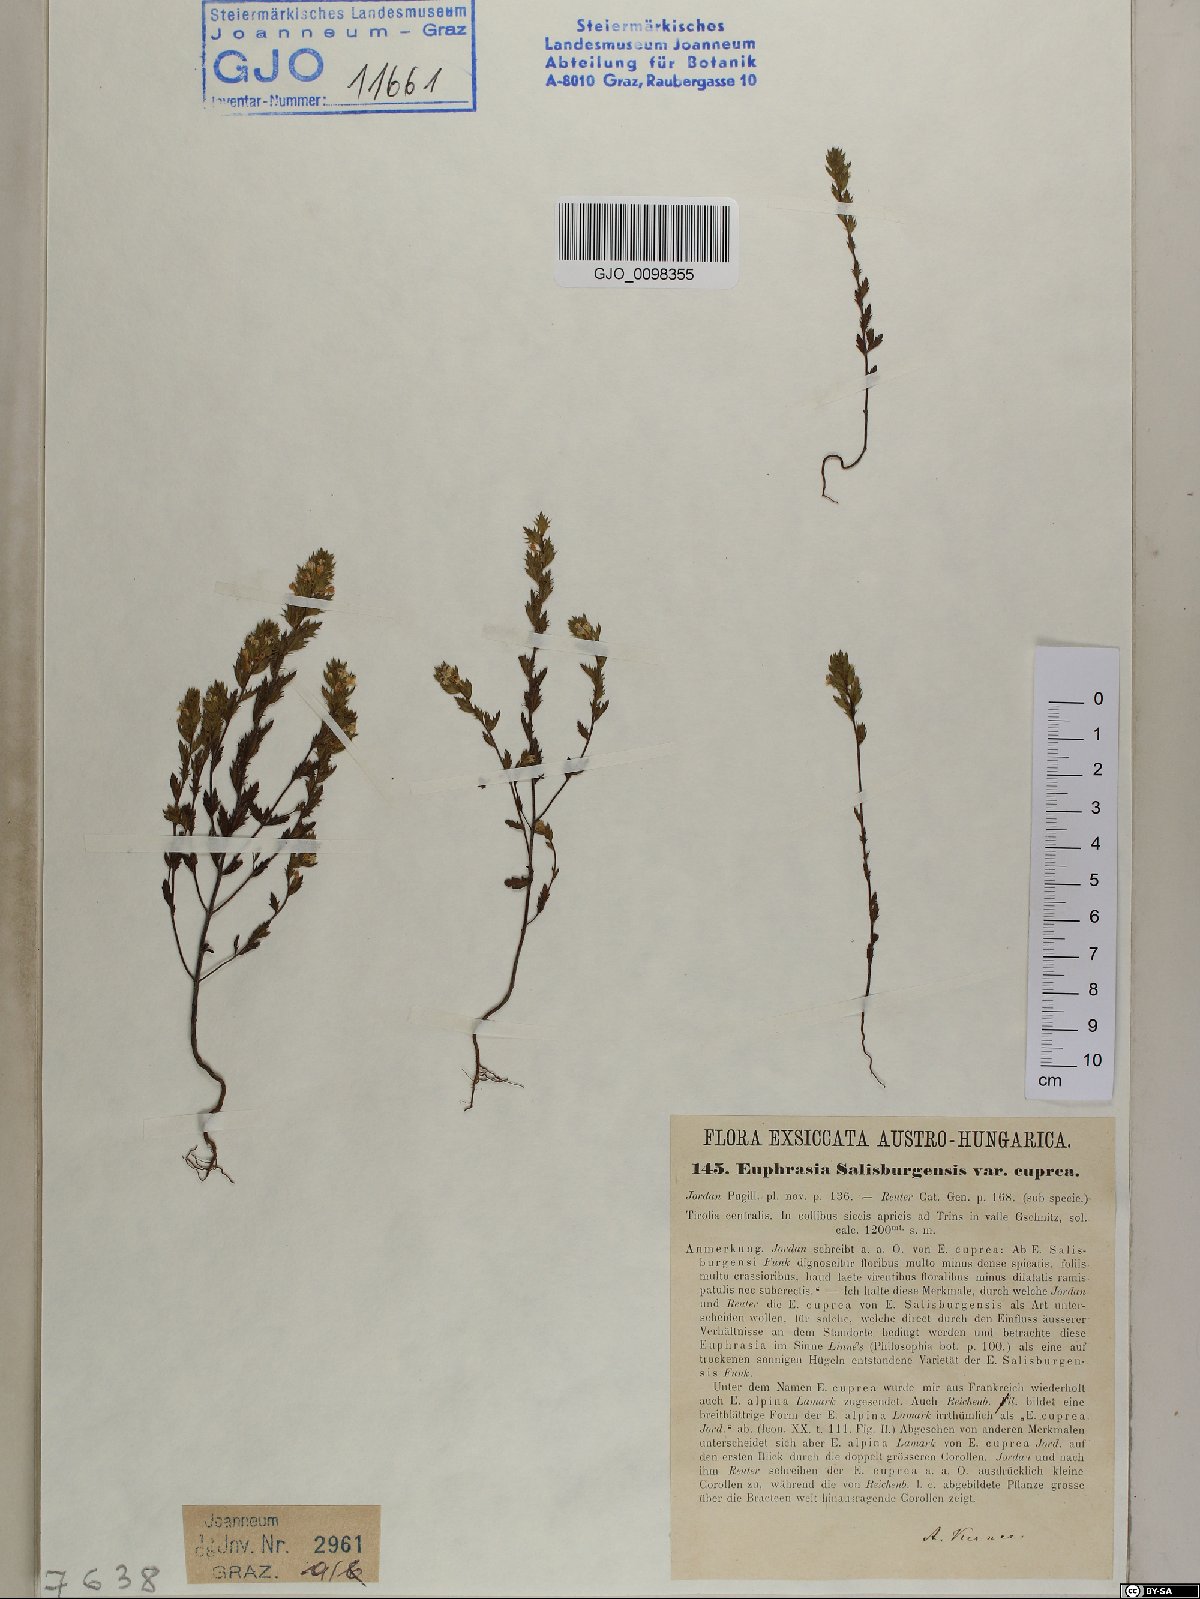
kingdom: Plantae
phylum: Tracheophyta
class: Magnoliopsida
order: Lamiales
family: Orobanchaceae
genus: Euphrasia
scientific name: Euphrasia officinalis
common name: Eyebright
